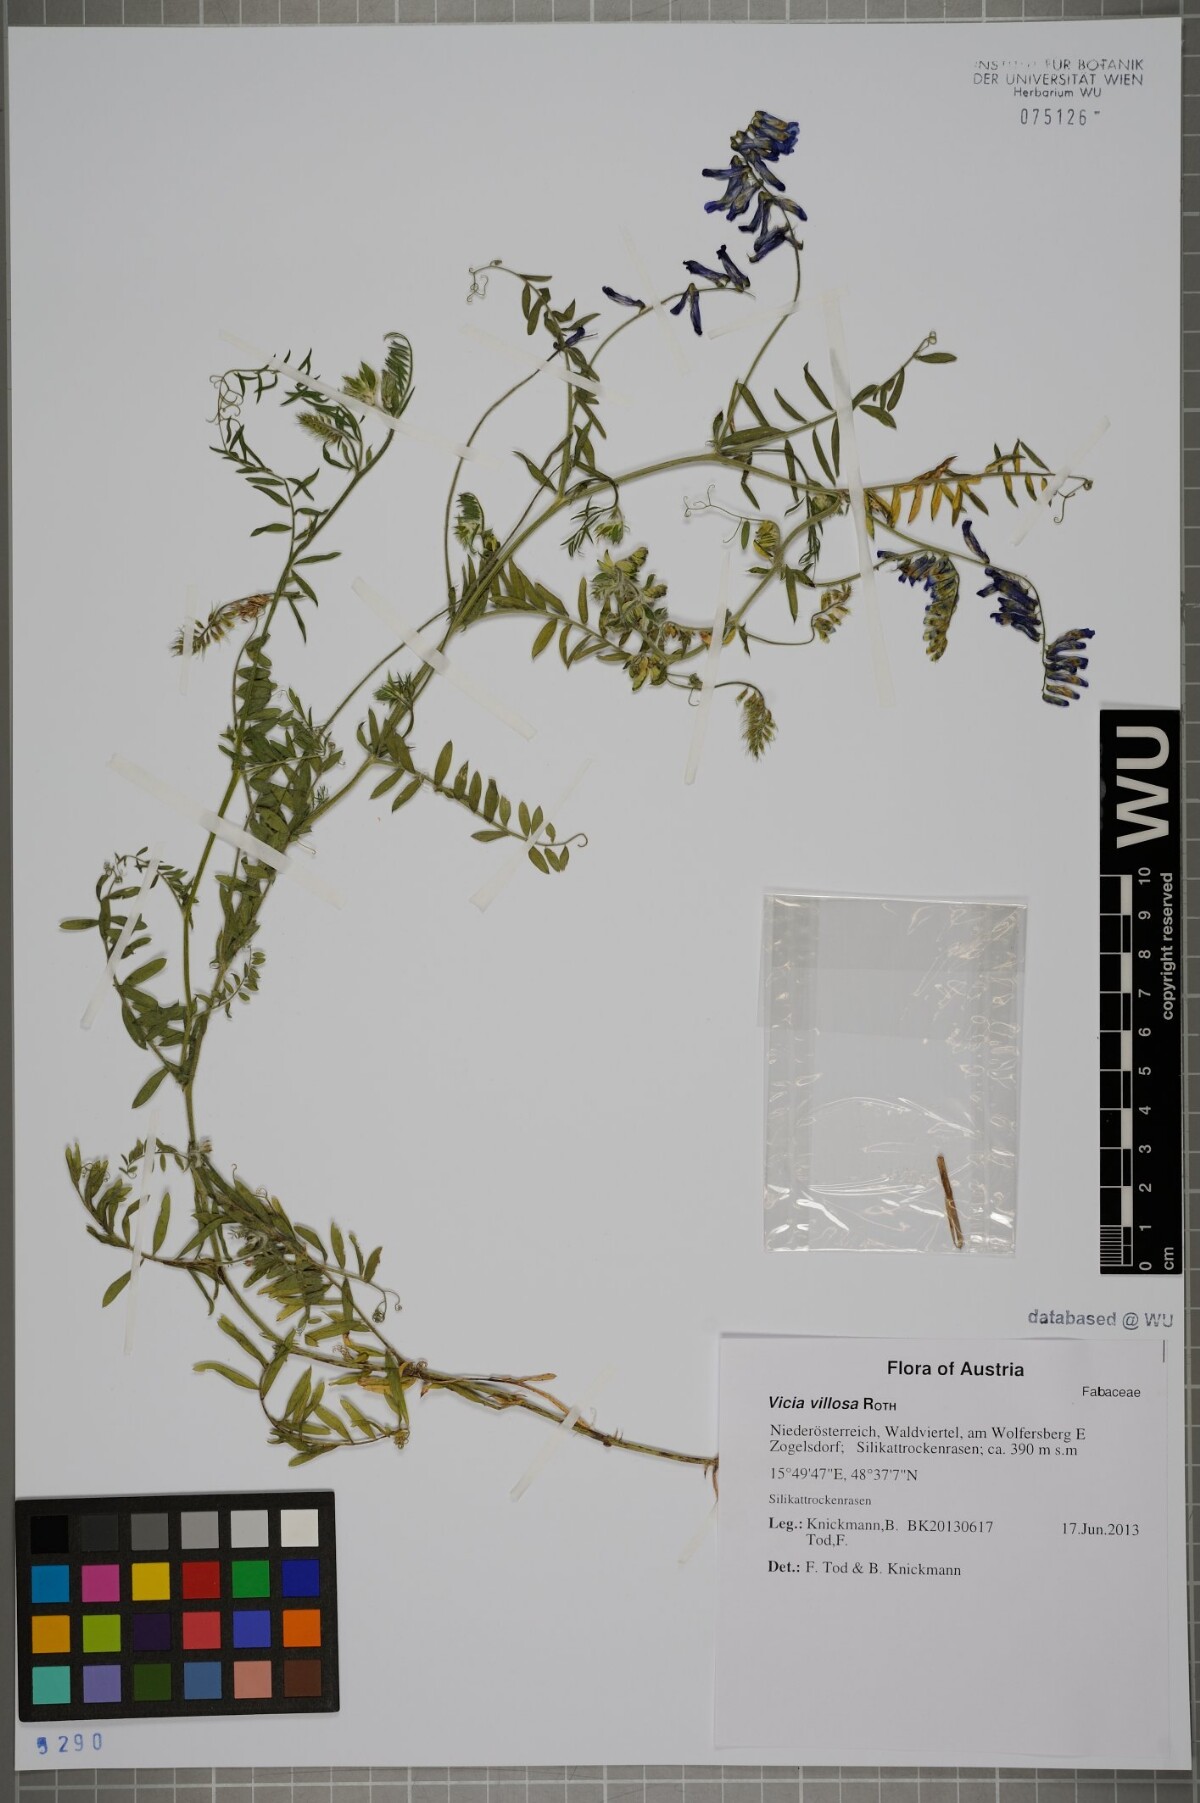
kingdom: Plantae
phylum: Tracheophyta
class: Magnoliopsida
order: Fabales
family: Fabaceae
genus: Vicia
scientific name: Vicia villosa
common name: Fodder vetch
